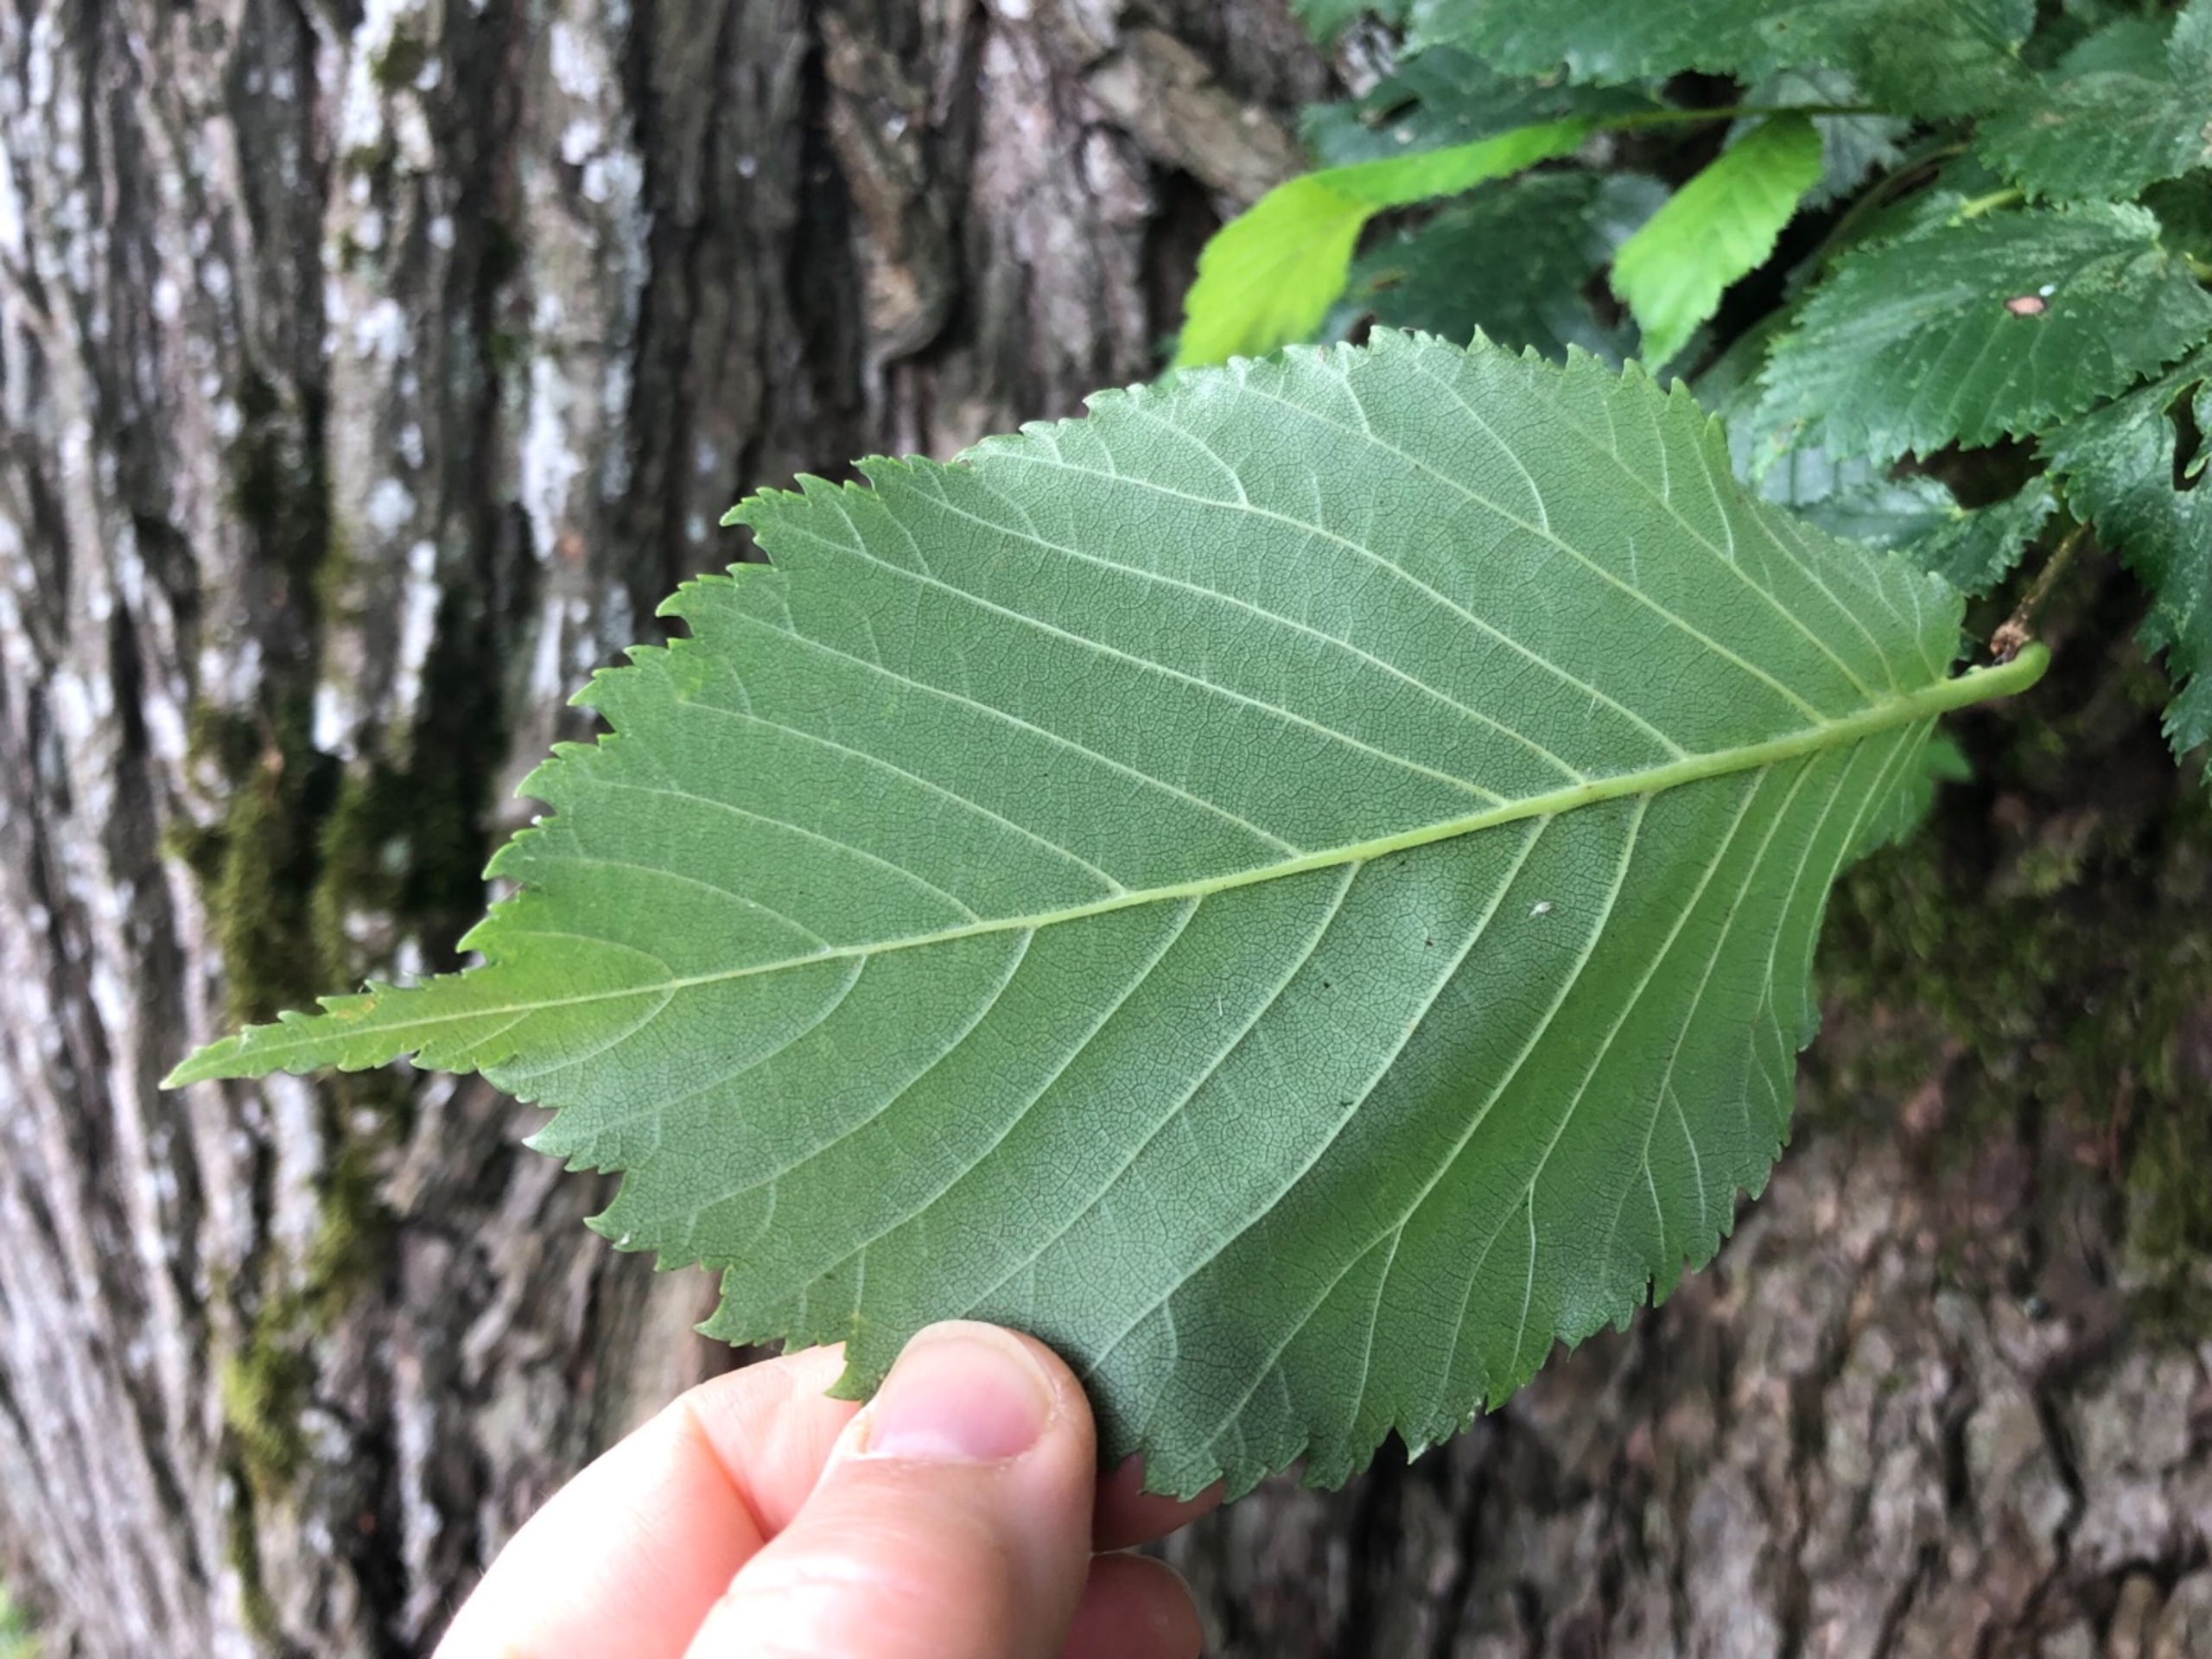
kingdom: Plantae
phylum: Tracheophyta
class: Magnoliopsida
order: Rosales
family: Ulmaceae
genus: Ulmus
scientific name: Ulmus glabra
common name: Skov-elm/storbladet elm
